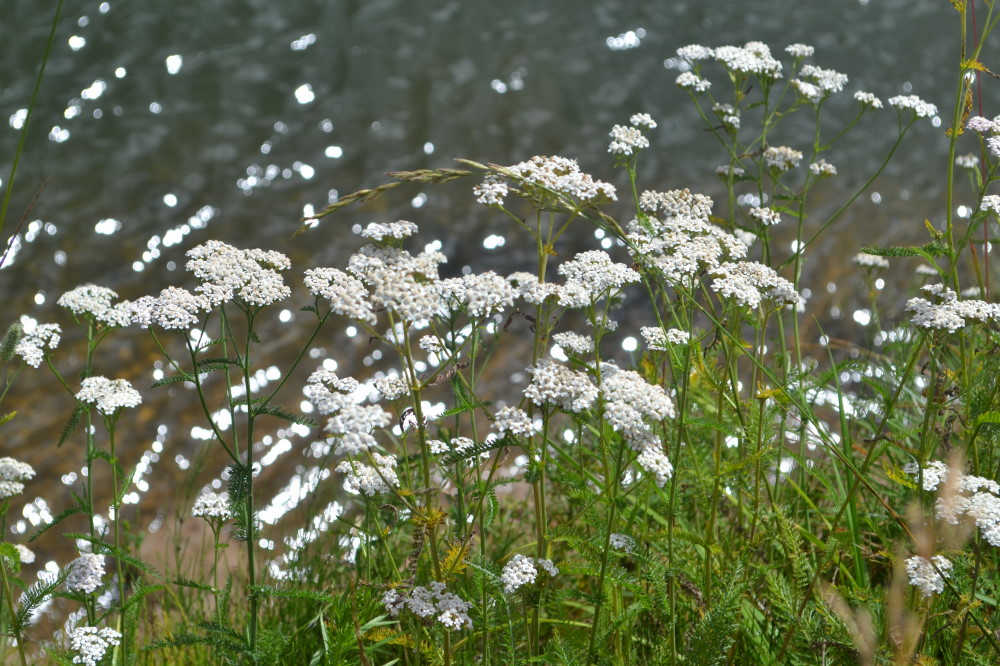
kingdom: Plantae
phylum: Tracheophyta
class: Magnoliopsida
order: Asterales
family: Asteraceae
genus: Achillea
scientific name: Achillea millefolium
